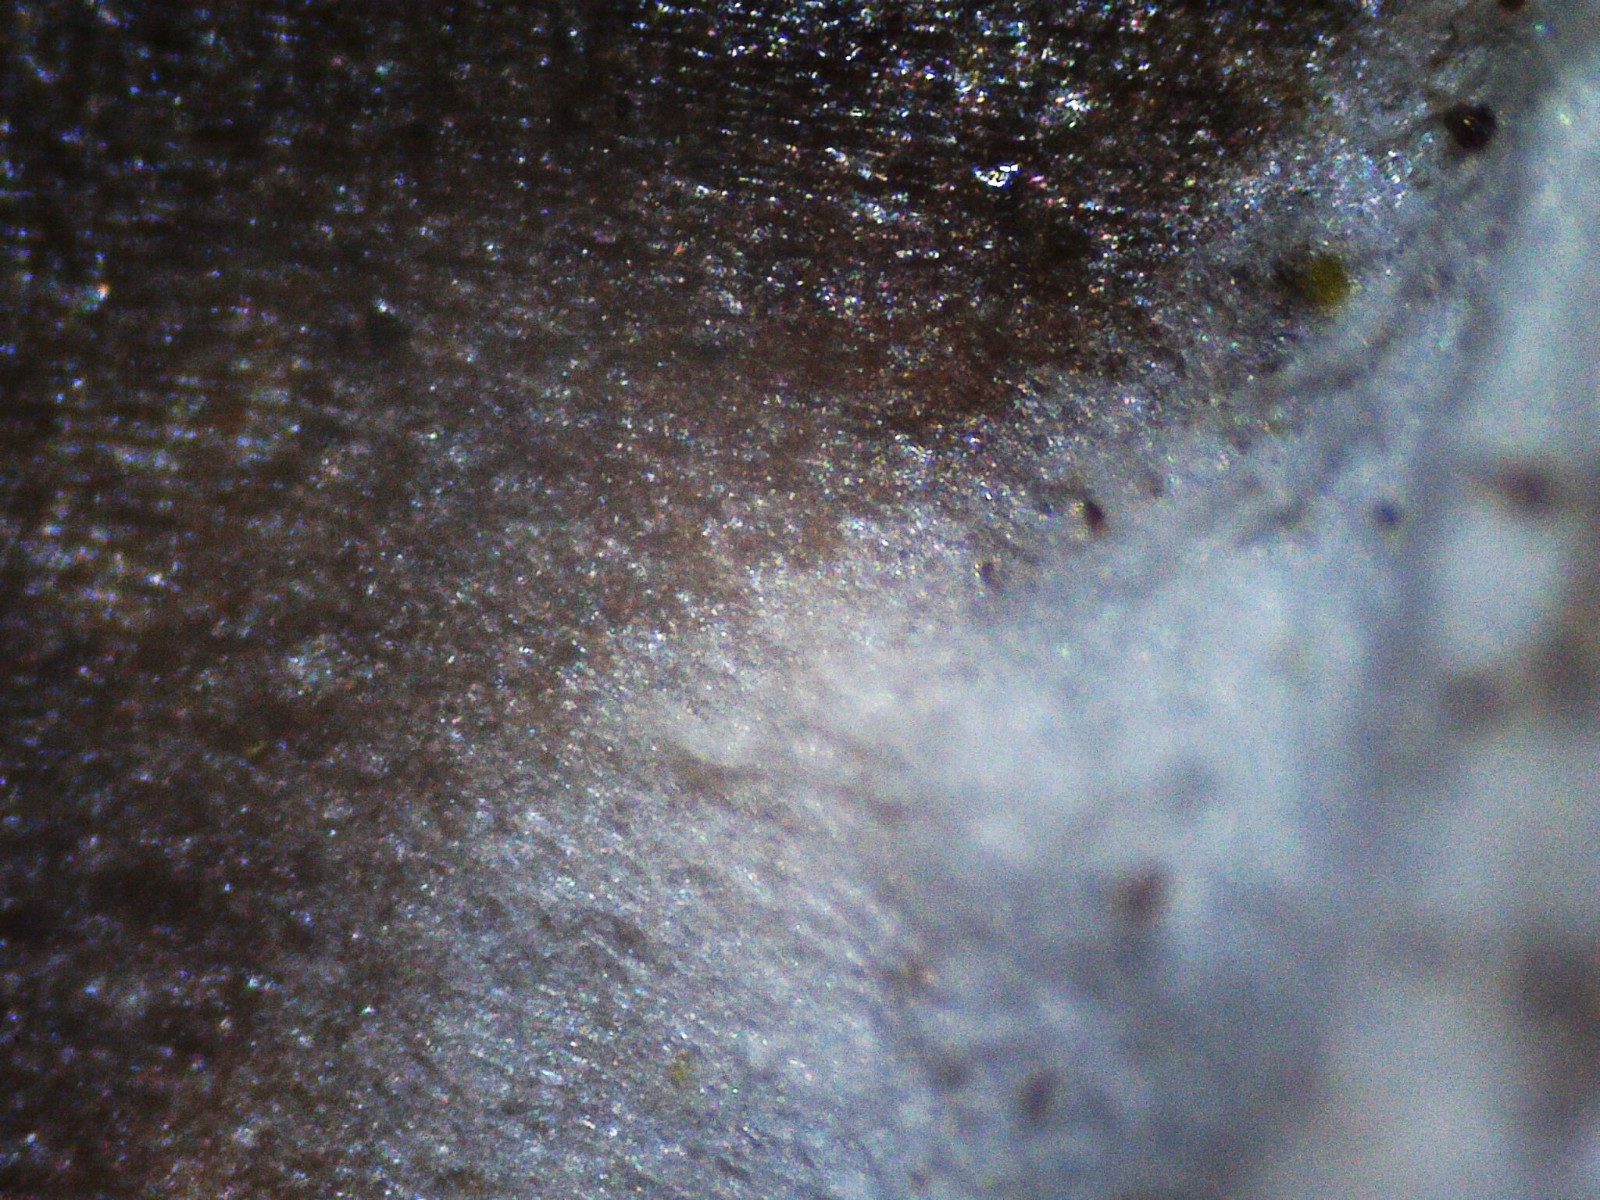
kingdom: Fungi
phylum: Basidiomycota
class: Agaricomycetes
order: Polyporales
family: Steccherinaceae
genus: Steccherinum
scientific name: Steccherinum
